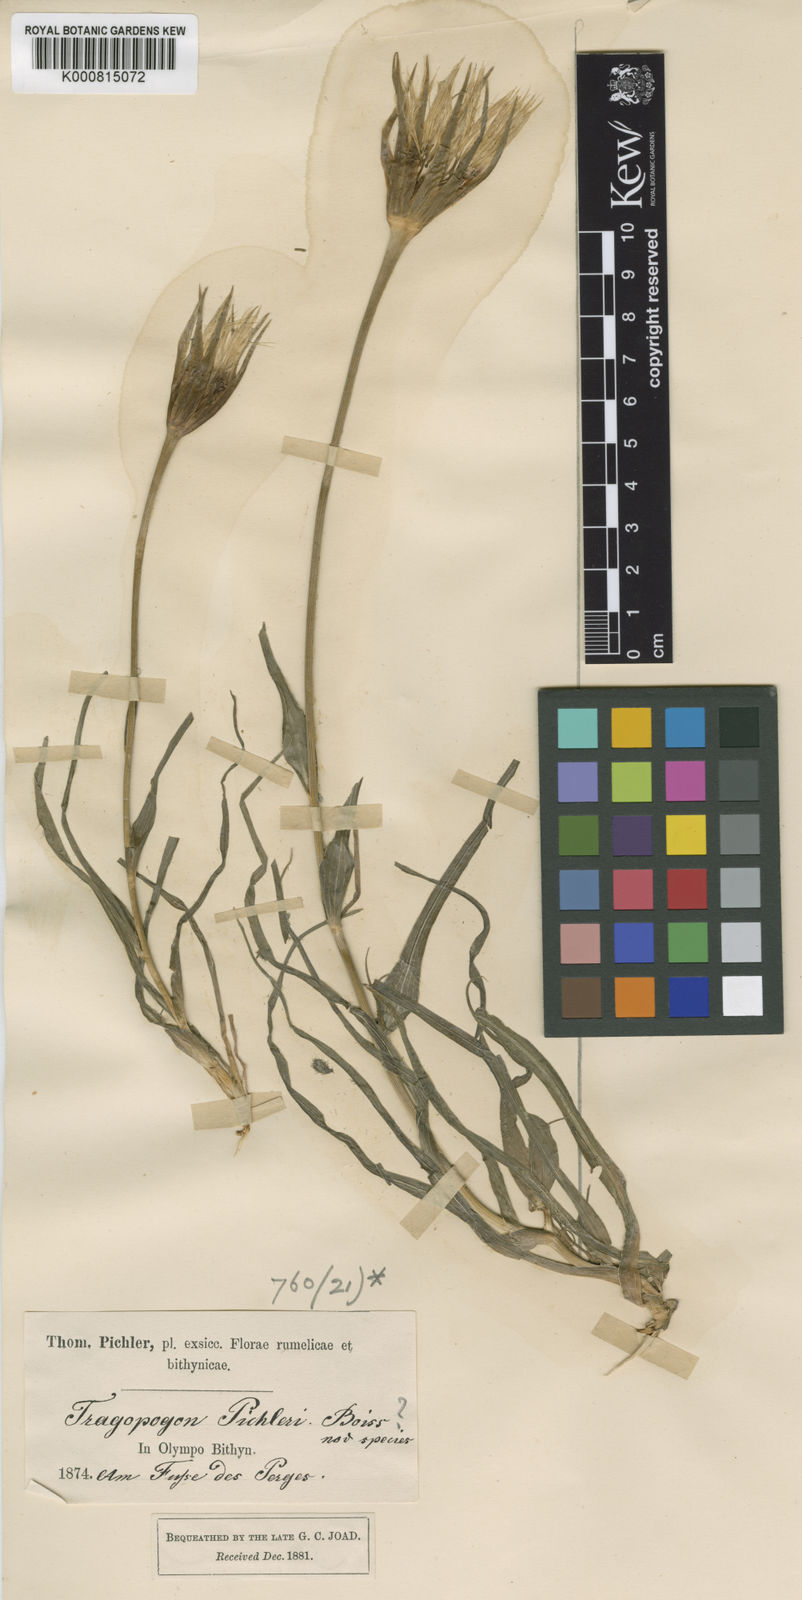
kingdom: Plantae
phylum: Tracheophyta
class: Magnoliopsida
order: Asterales
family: Asteraceae
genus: Tragopogon
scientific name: Tragopogon pichleri
